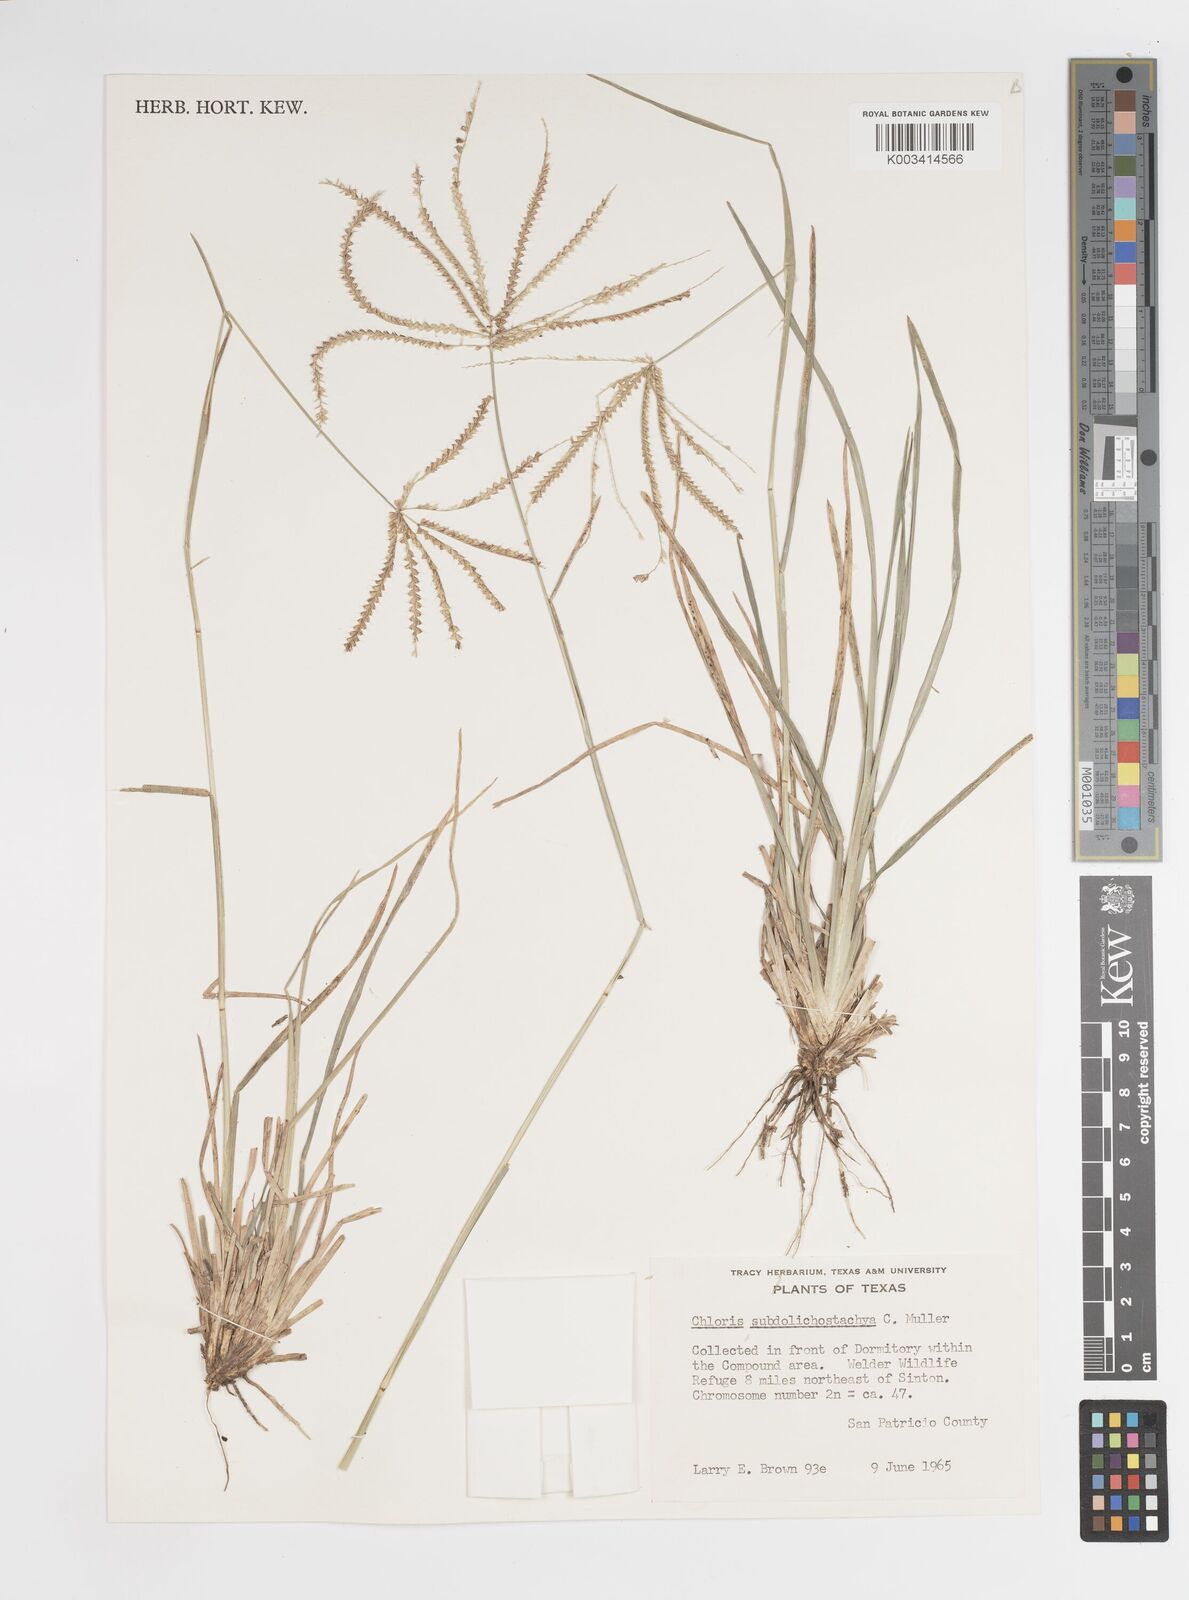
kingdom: Plantae
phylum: Tracheophyta
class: Liliopsida
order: Poales
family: Poaceae
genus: Chloris
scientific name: Chloris subdolichostachya
